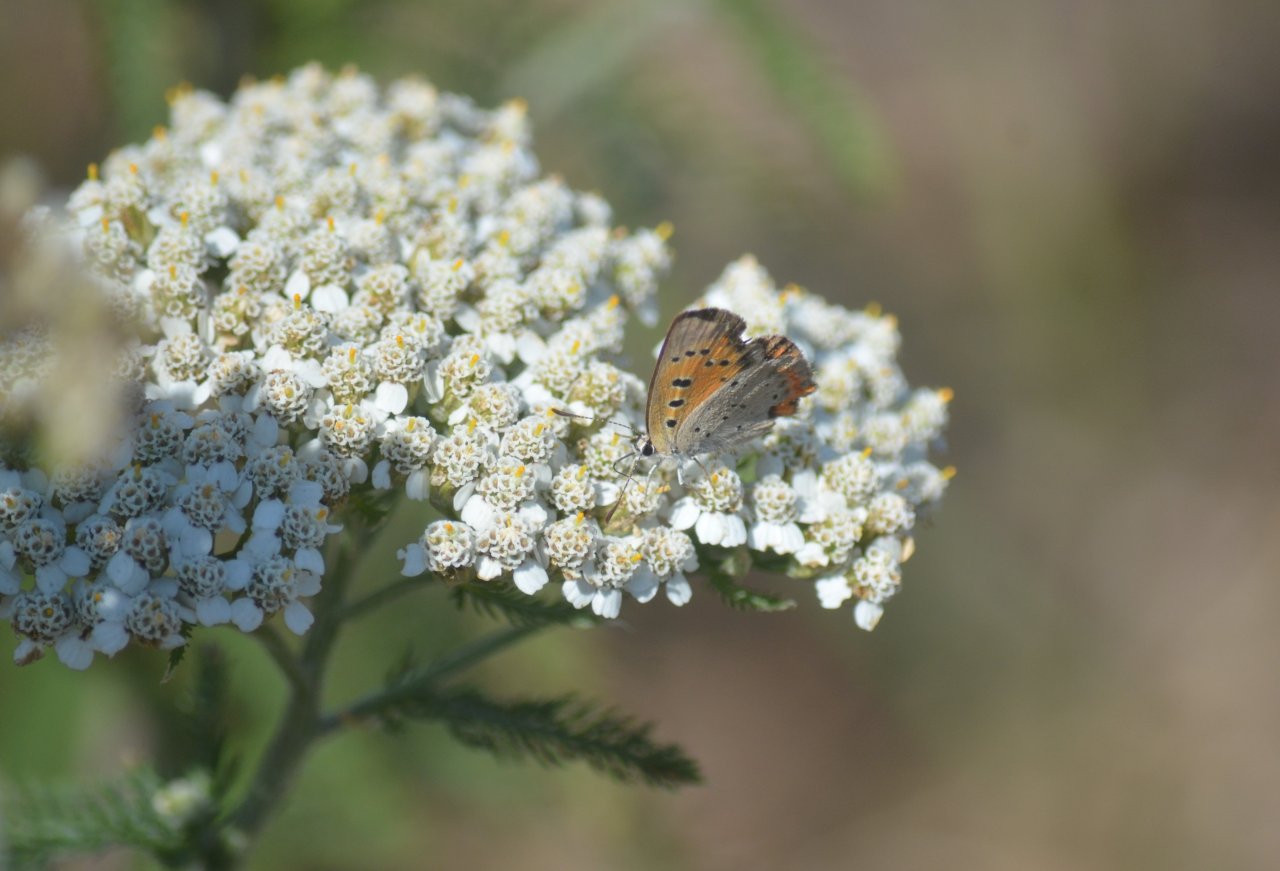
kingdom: Animalia
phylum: Arthropoda
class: Insecta
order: Lepidoptera
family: Lycaenidae
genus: Lycaena
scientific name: Lycaena phlaeas
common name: American Copper
